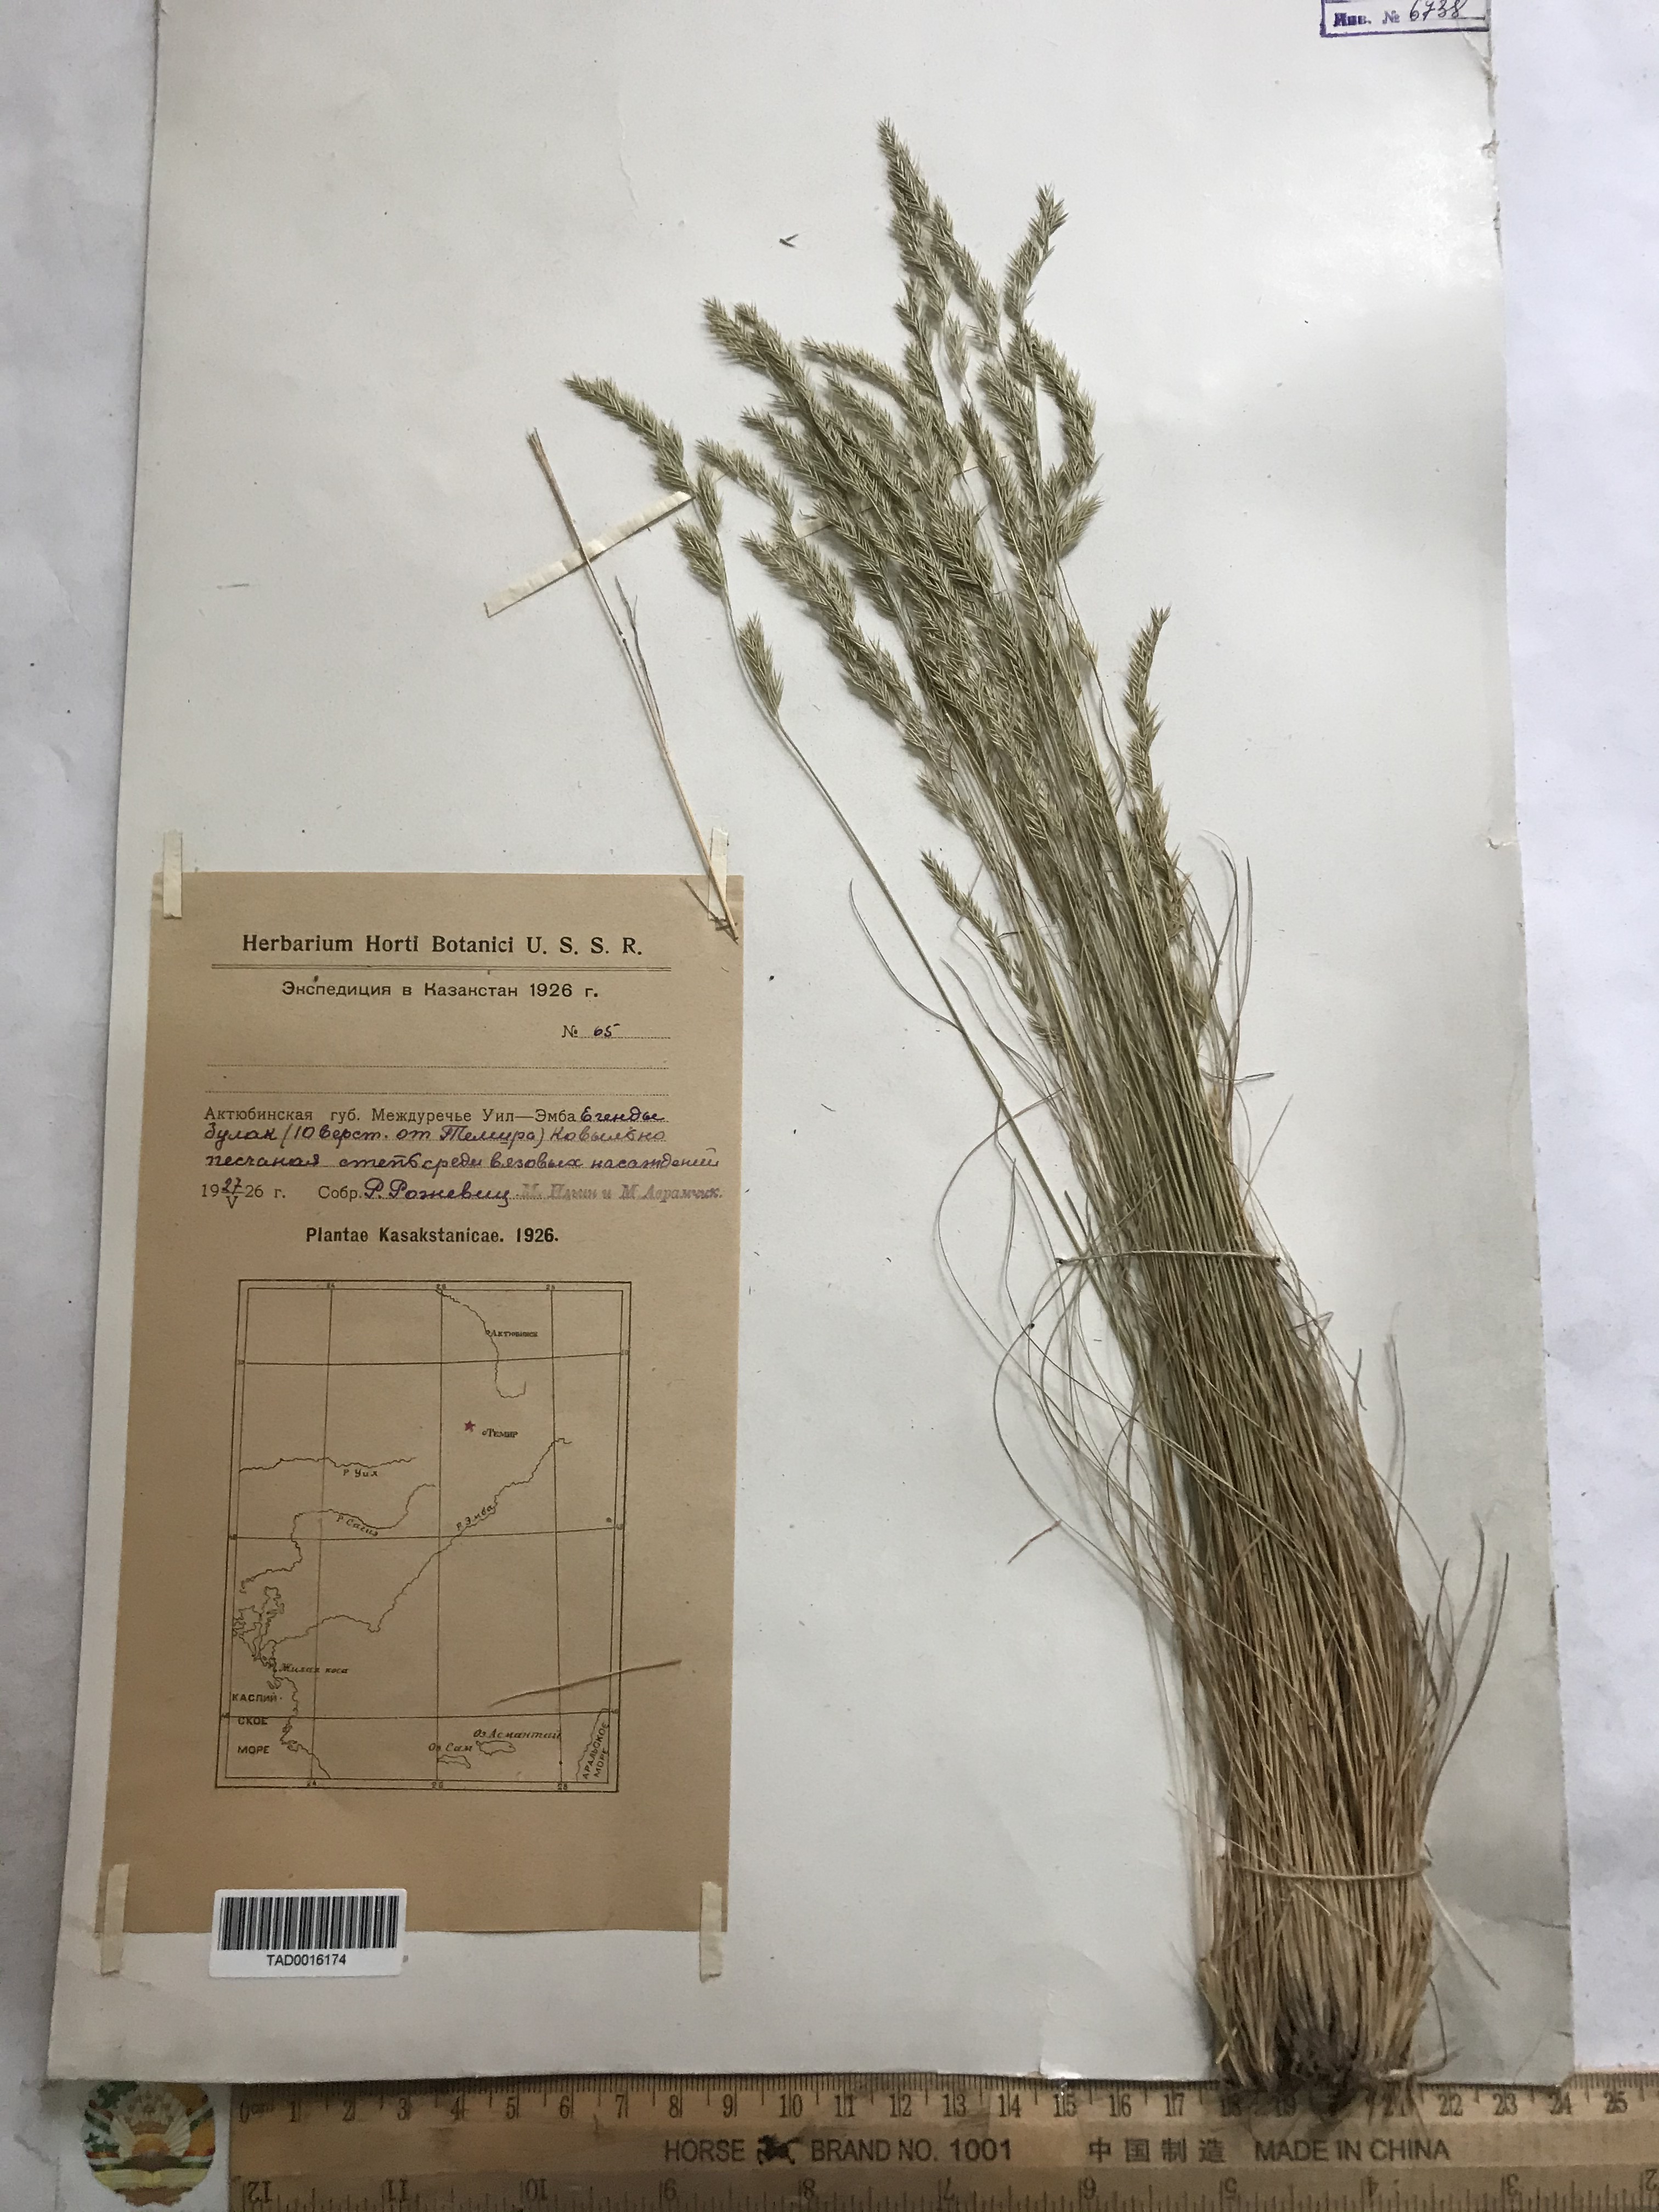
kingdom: Plantae
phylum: Tracheophyta
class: Liliopsida
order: Poales
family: Poaceae
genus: Festuca
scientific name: Festuca valesiaca
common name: Volga fescue
